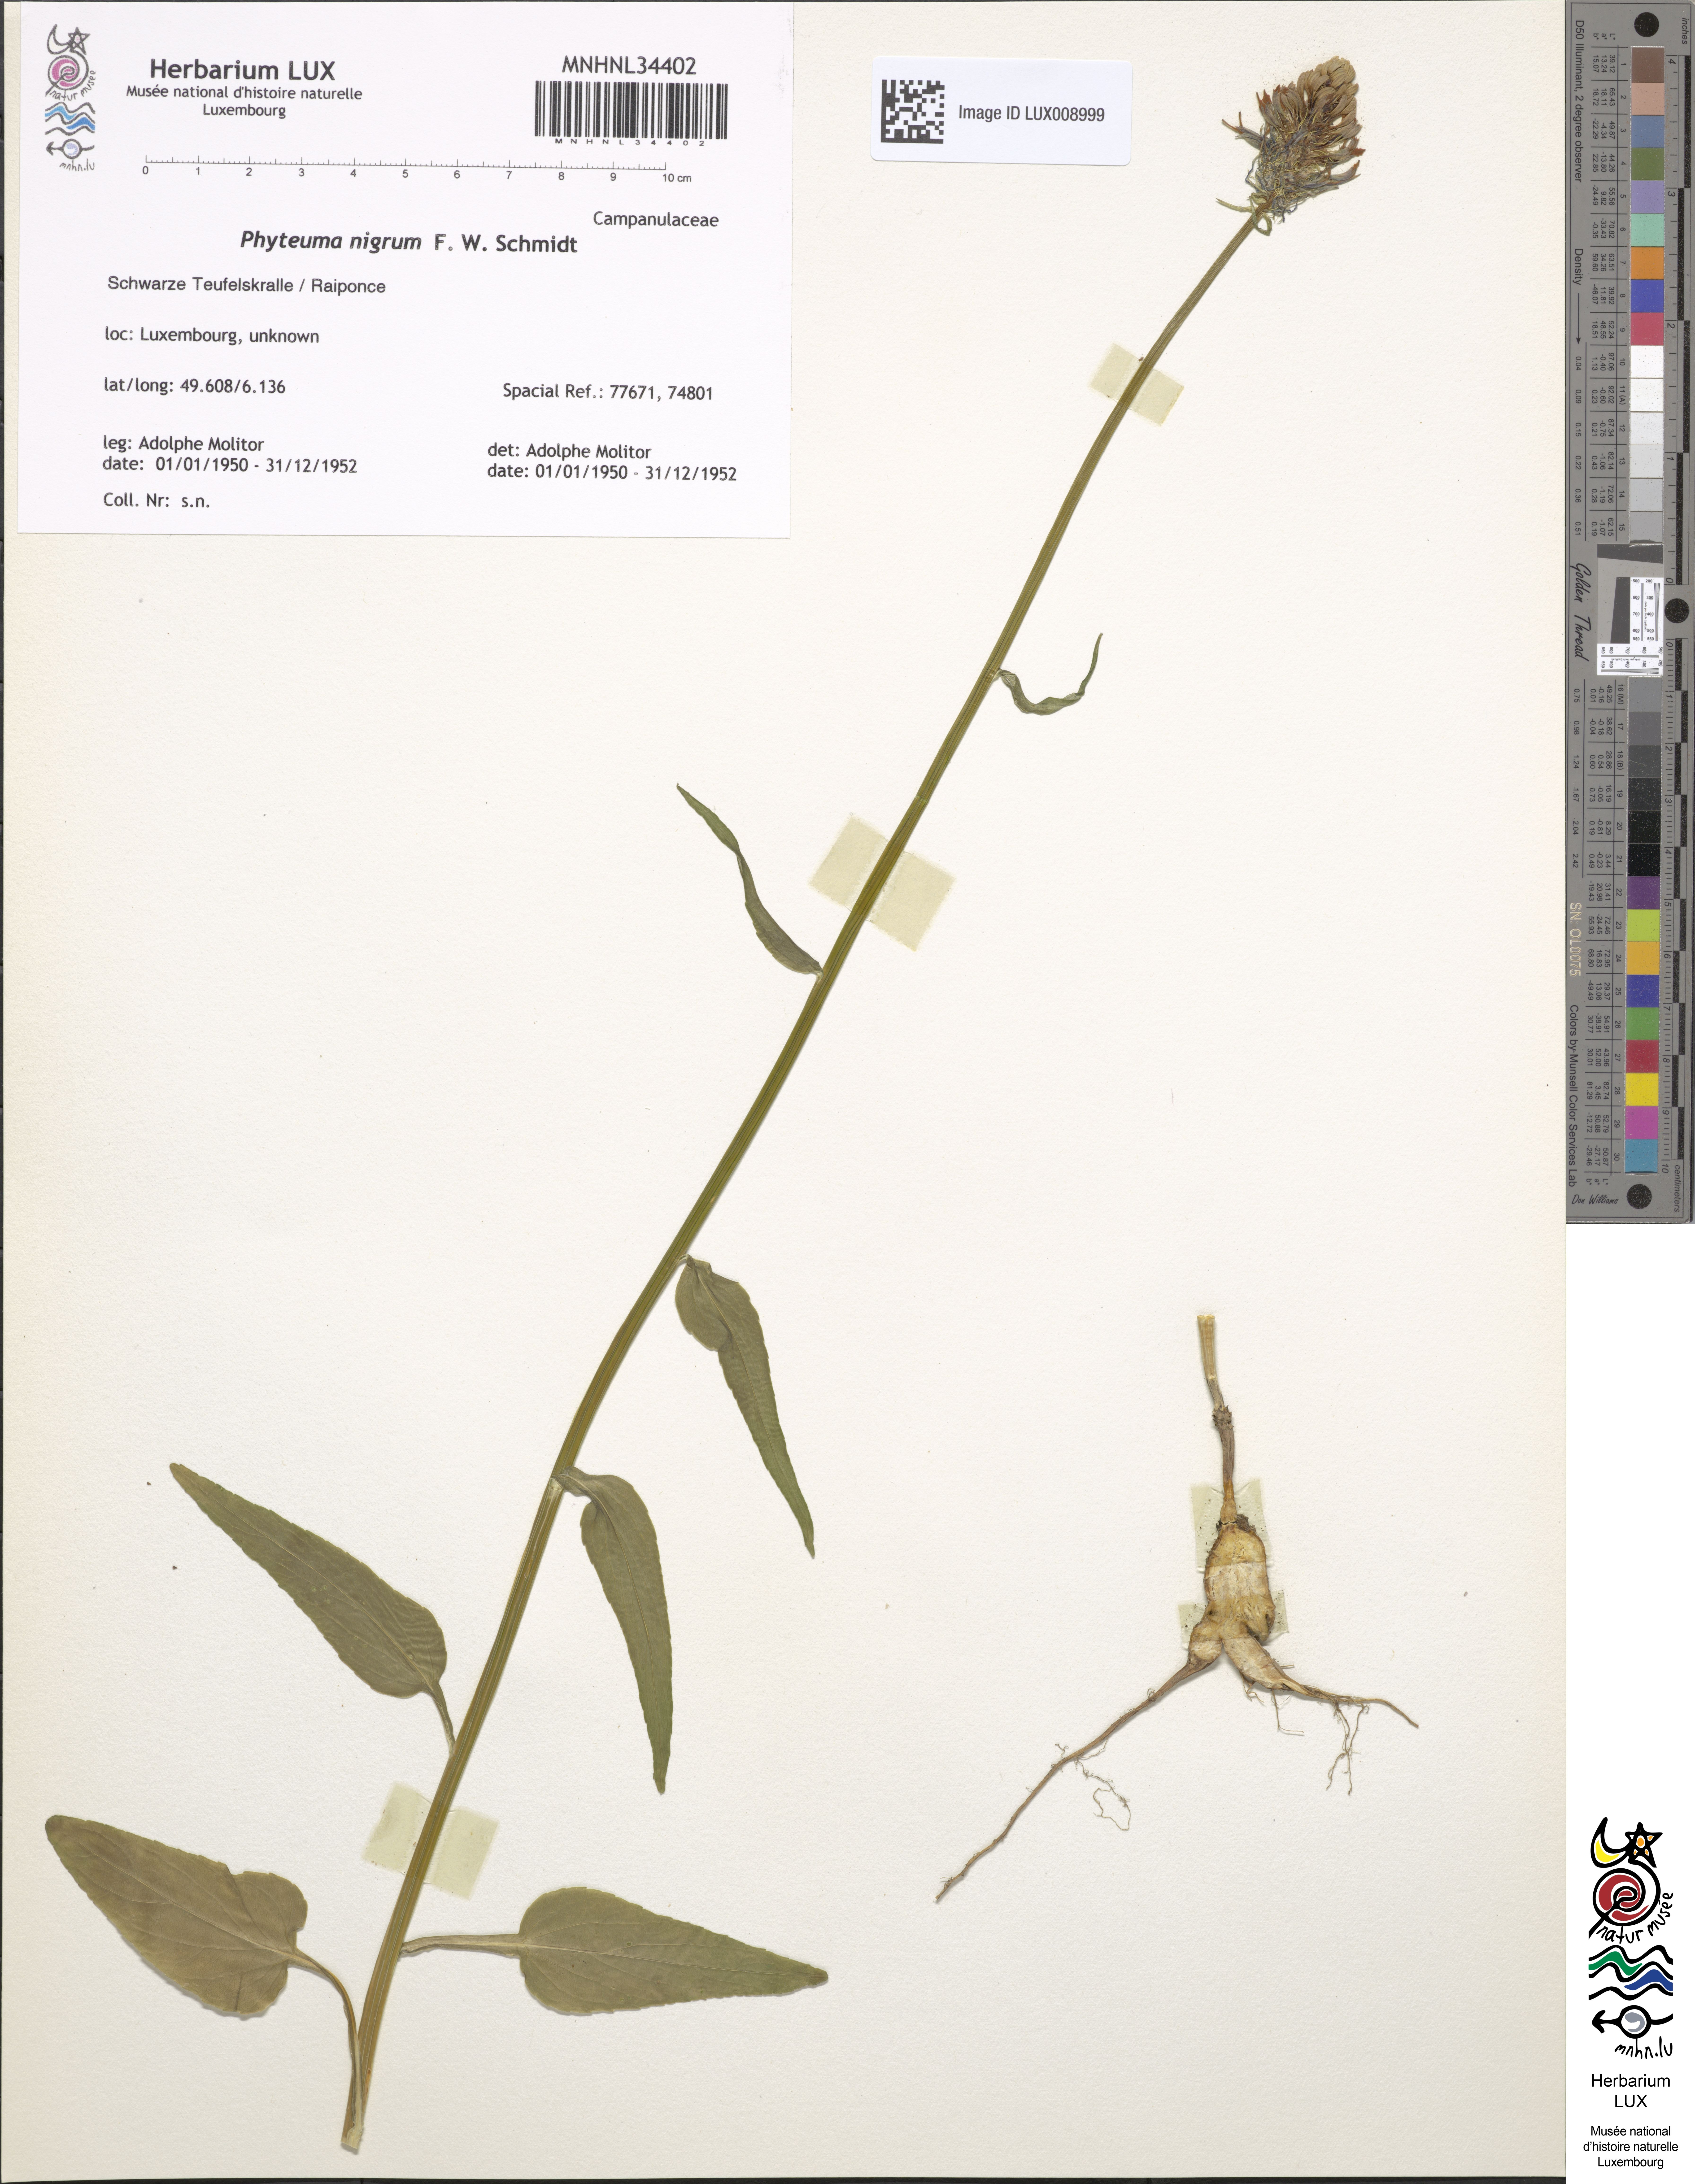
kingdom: Plantae
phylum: Tracheophyta
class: Magnoliopsida
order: Asterales
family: Campanulaceae
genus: Phyteuma
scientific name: Phyteuma nigrum
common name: Black rampion
